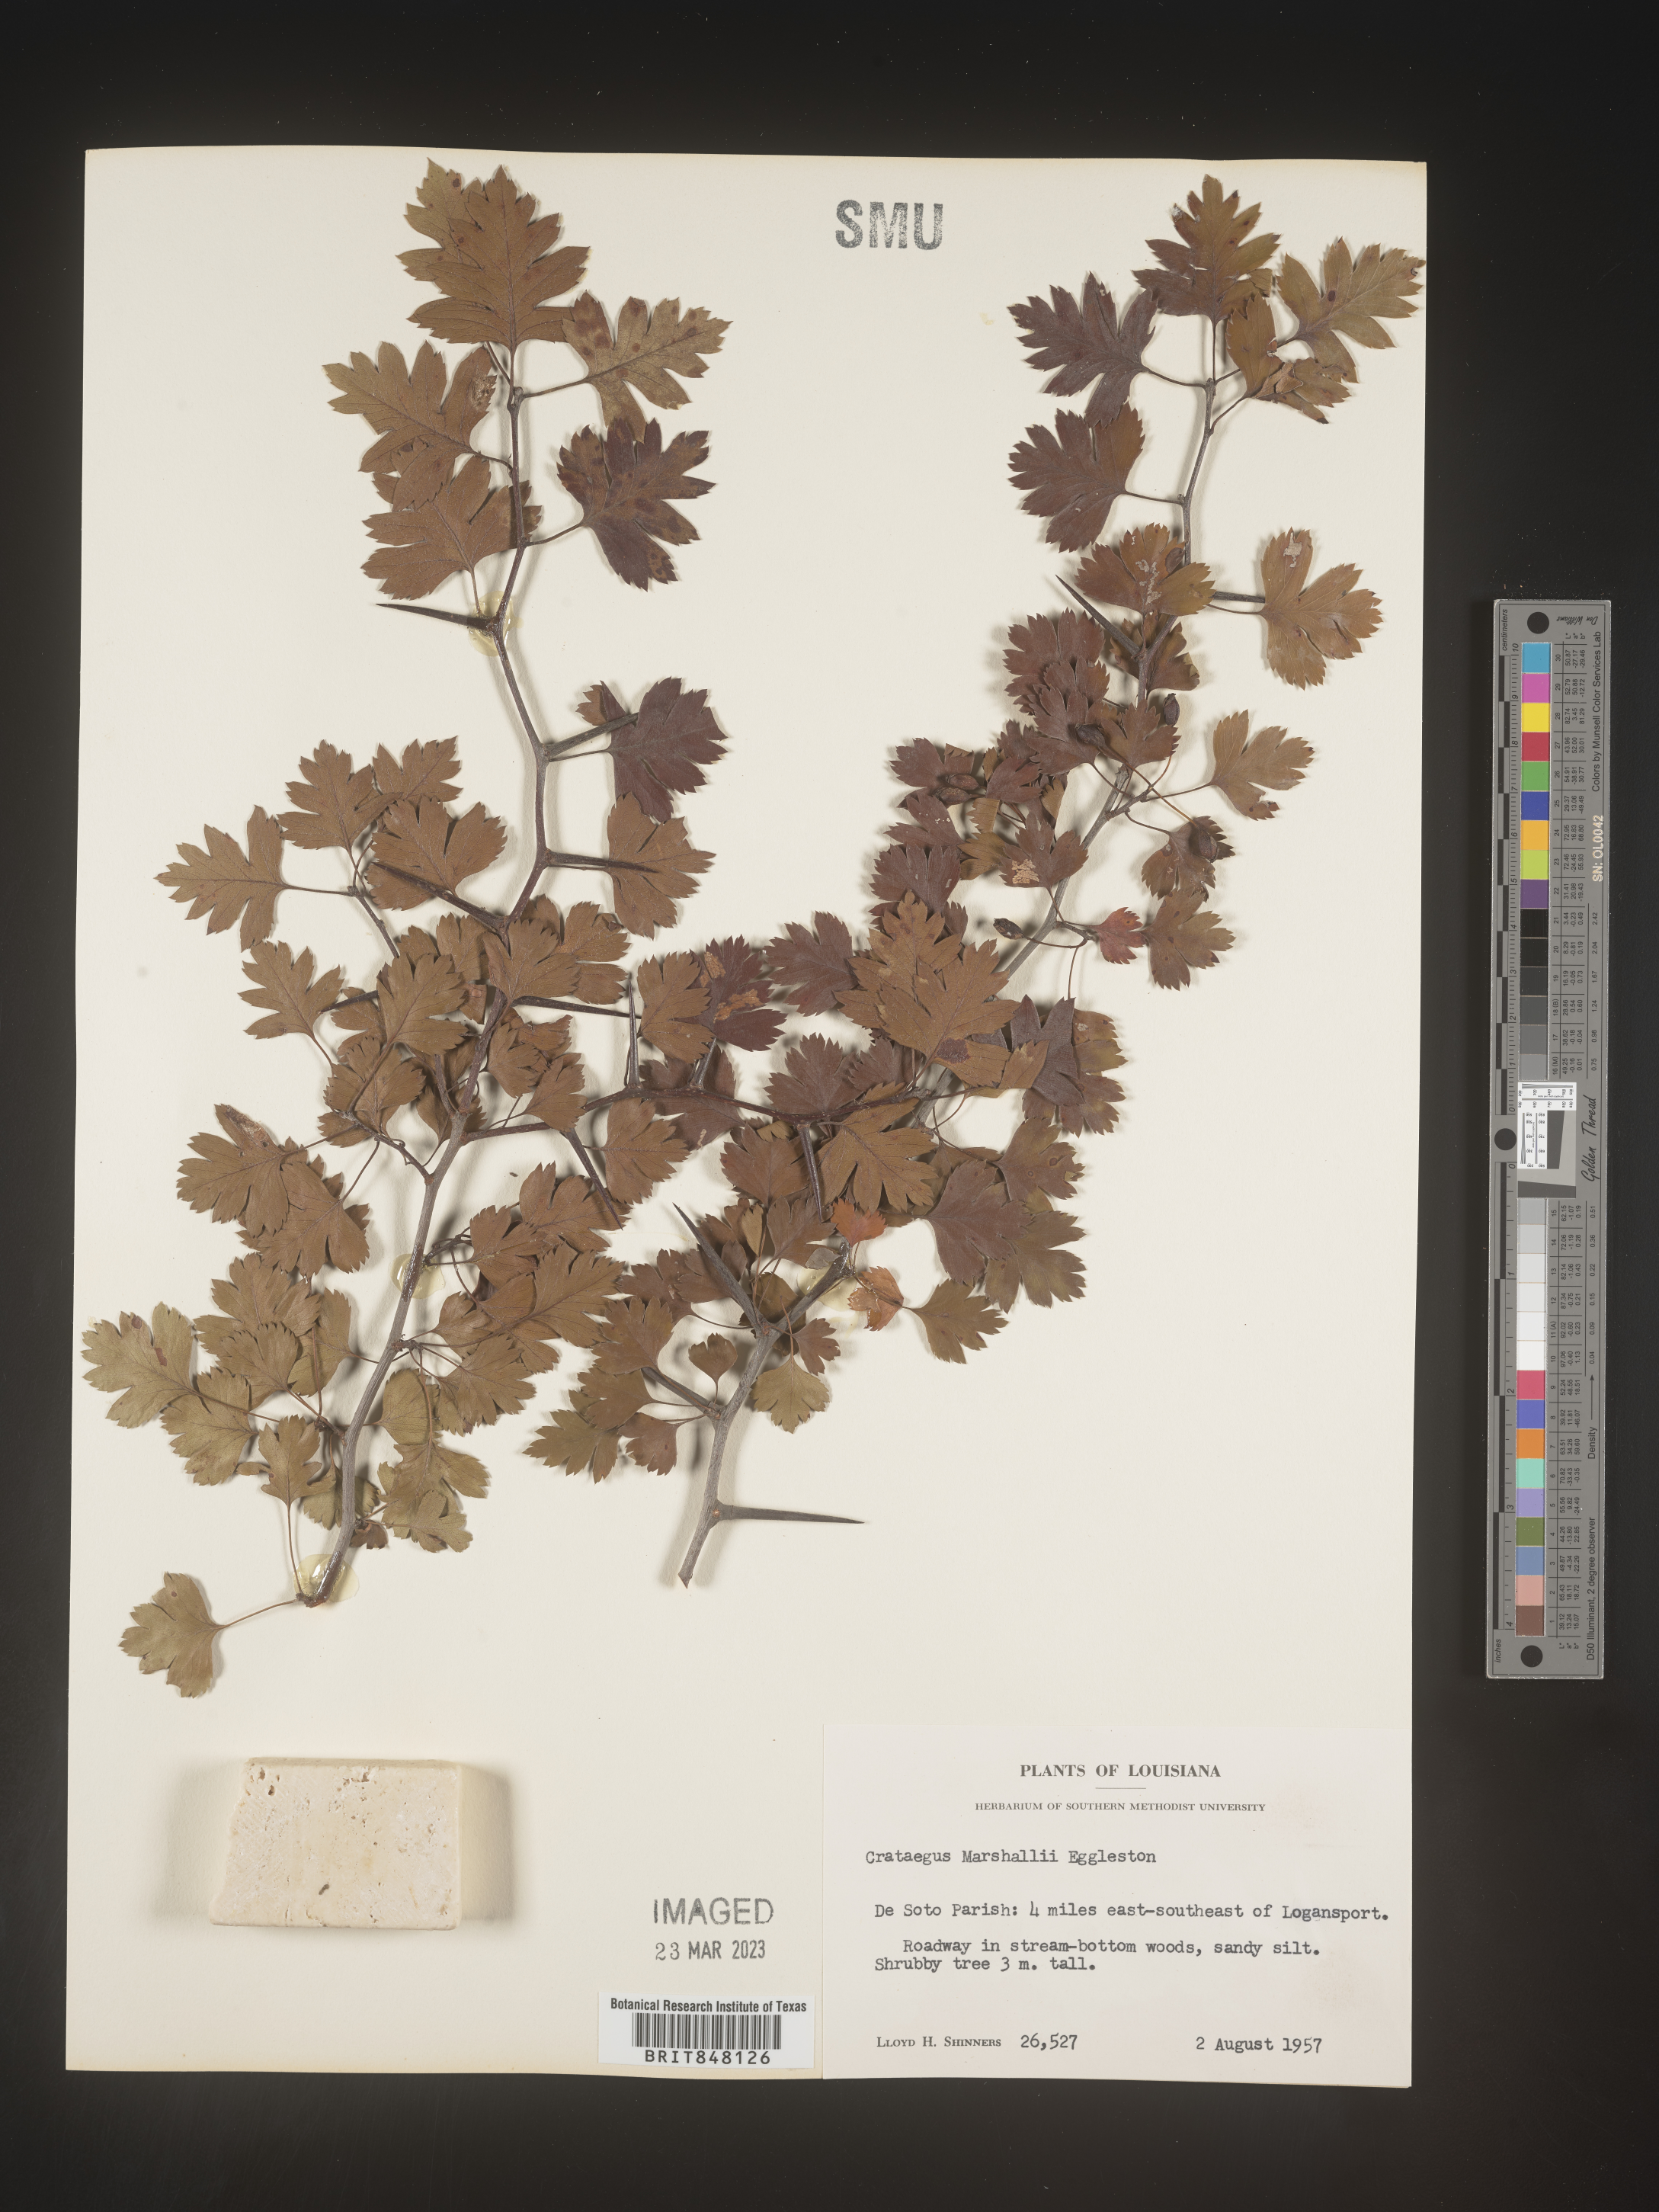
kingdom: Plantae
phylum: Tracheophyta
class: Magnoliopsida
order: Rosales
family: Rosaceae
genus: Crataegus
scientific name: Crataegus marshallii
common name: Parsley-hawthorn
